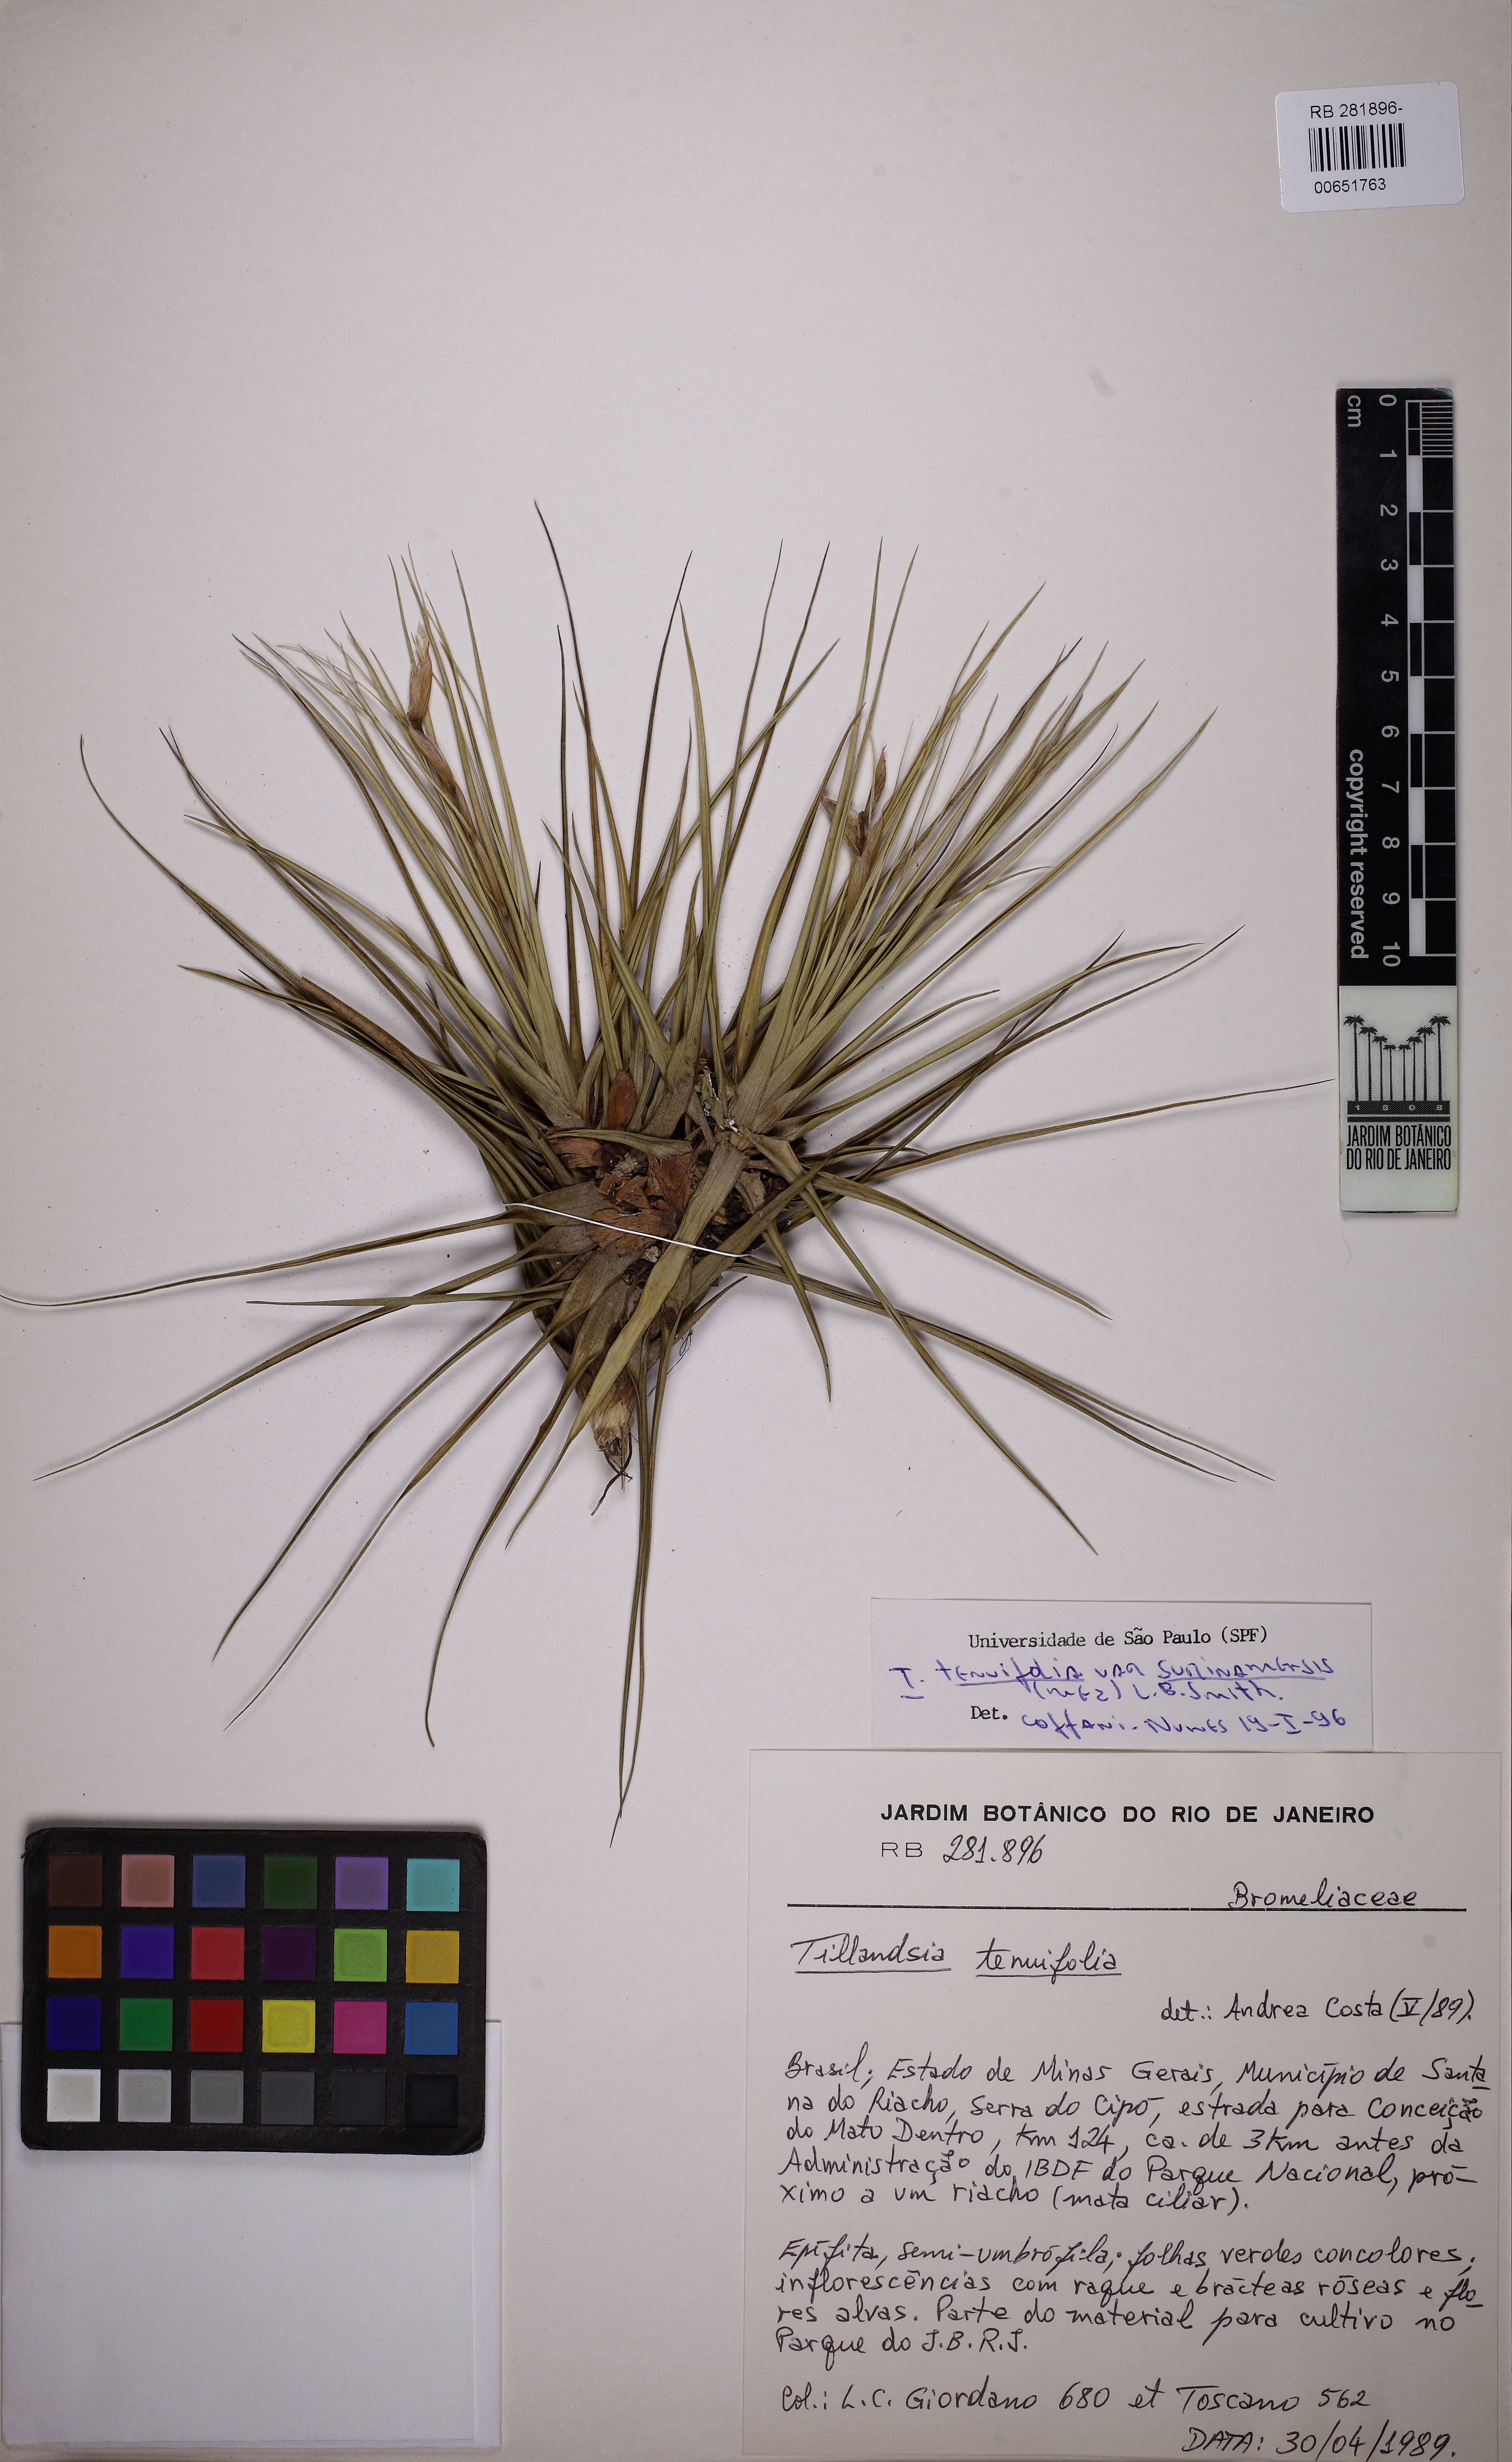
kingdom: Plantae
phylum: Tracheophyta
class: Liliopsida
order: Poales
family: Bromeliaceae
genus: Tillandsia
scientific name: Tillandsia tenuifolia
